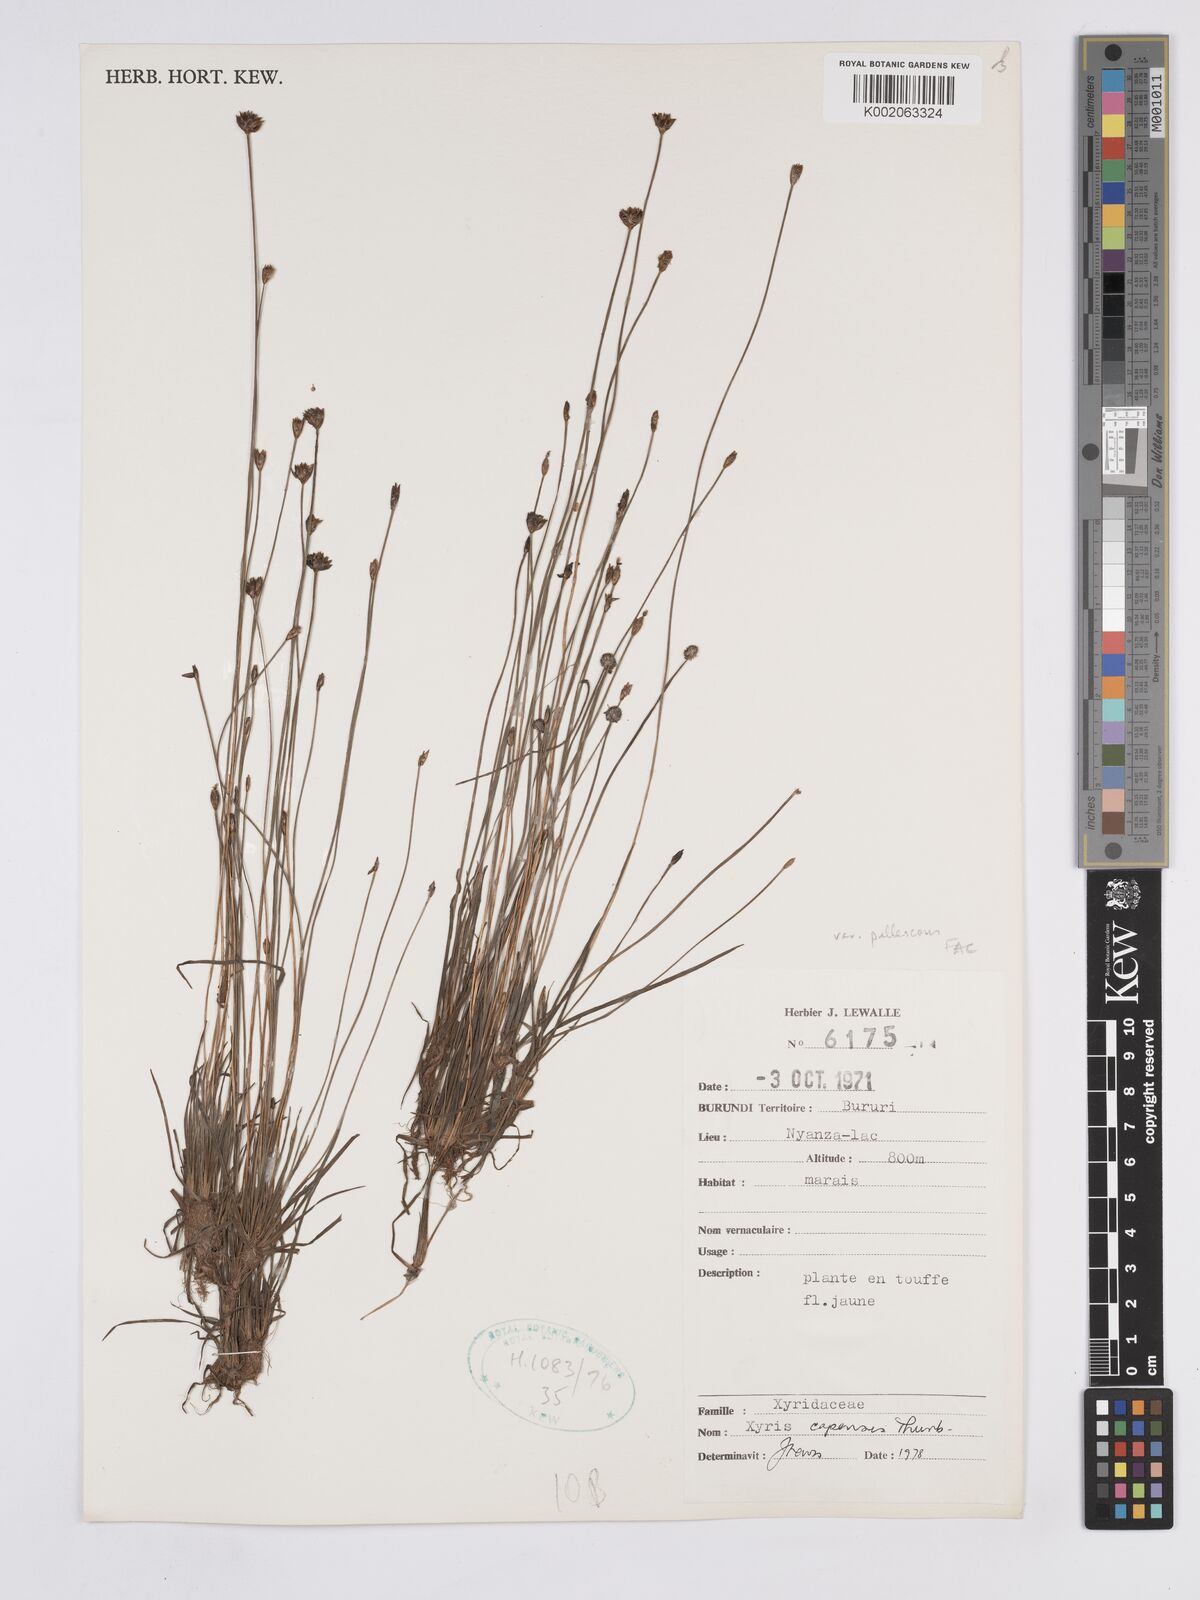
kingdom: Plantae
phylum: Tracheophyta
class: Liliopsida
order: Poales
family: Xyridaceae
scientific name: Xyridaceae
